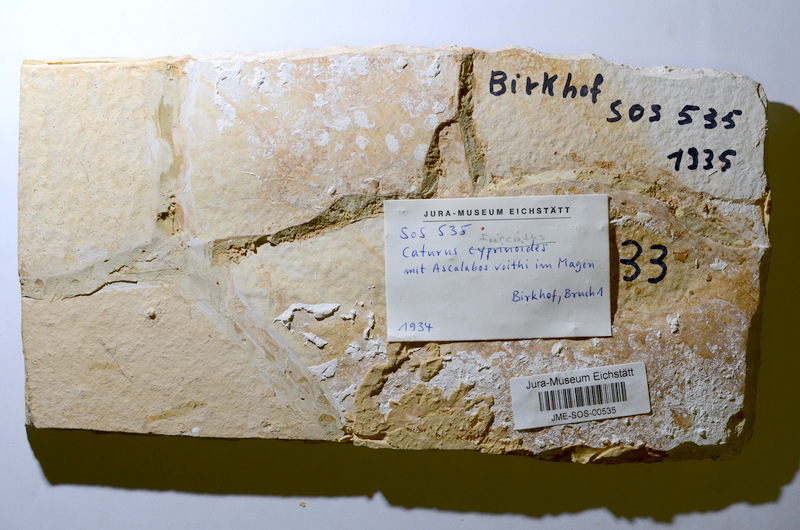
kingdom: Animalia
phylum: Chordata
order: Amiiformes
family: Caturidae
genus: Caturus
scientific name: Caturus furcatus
